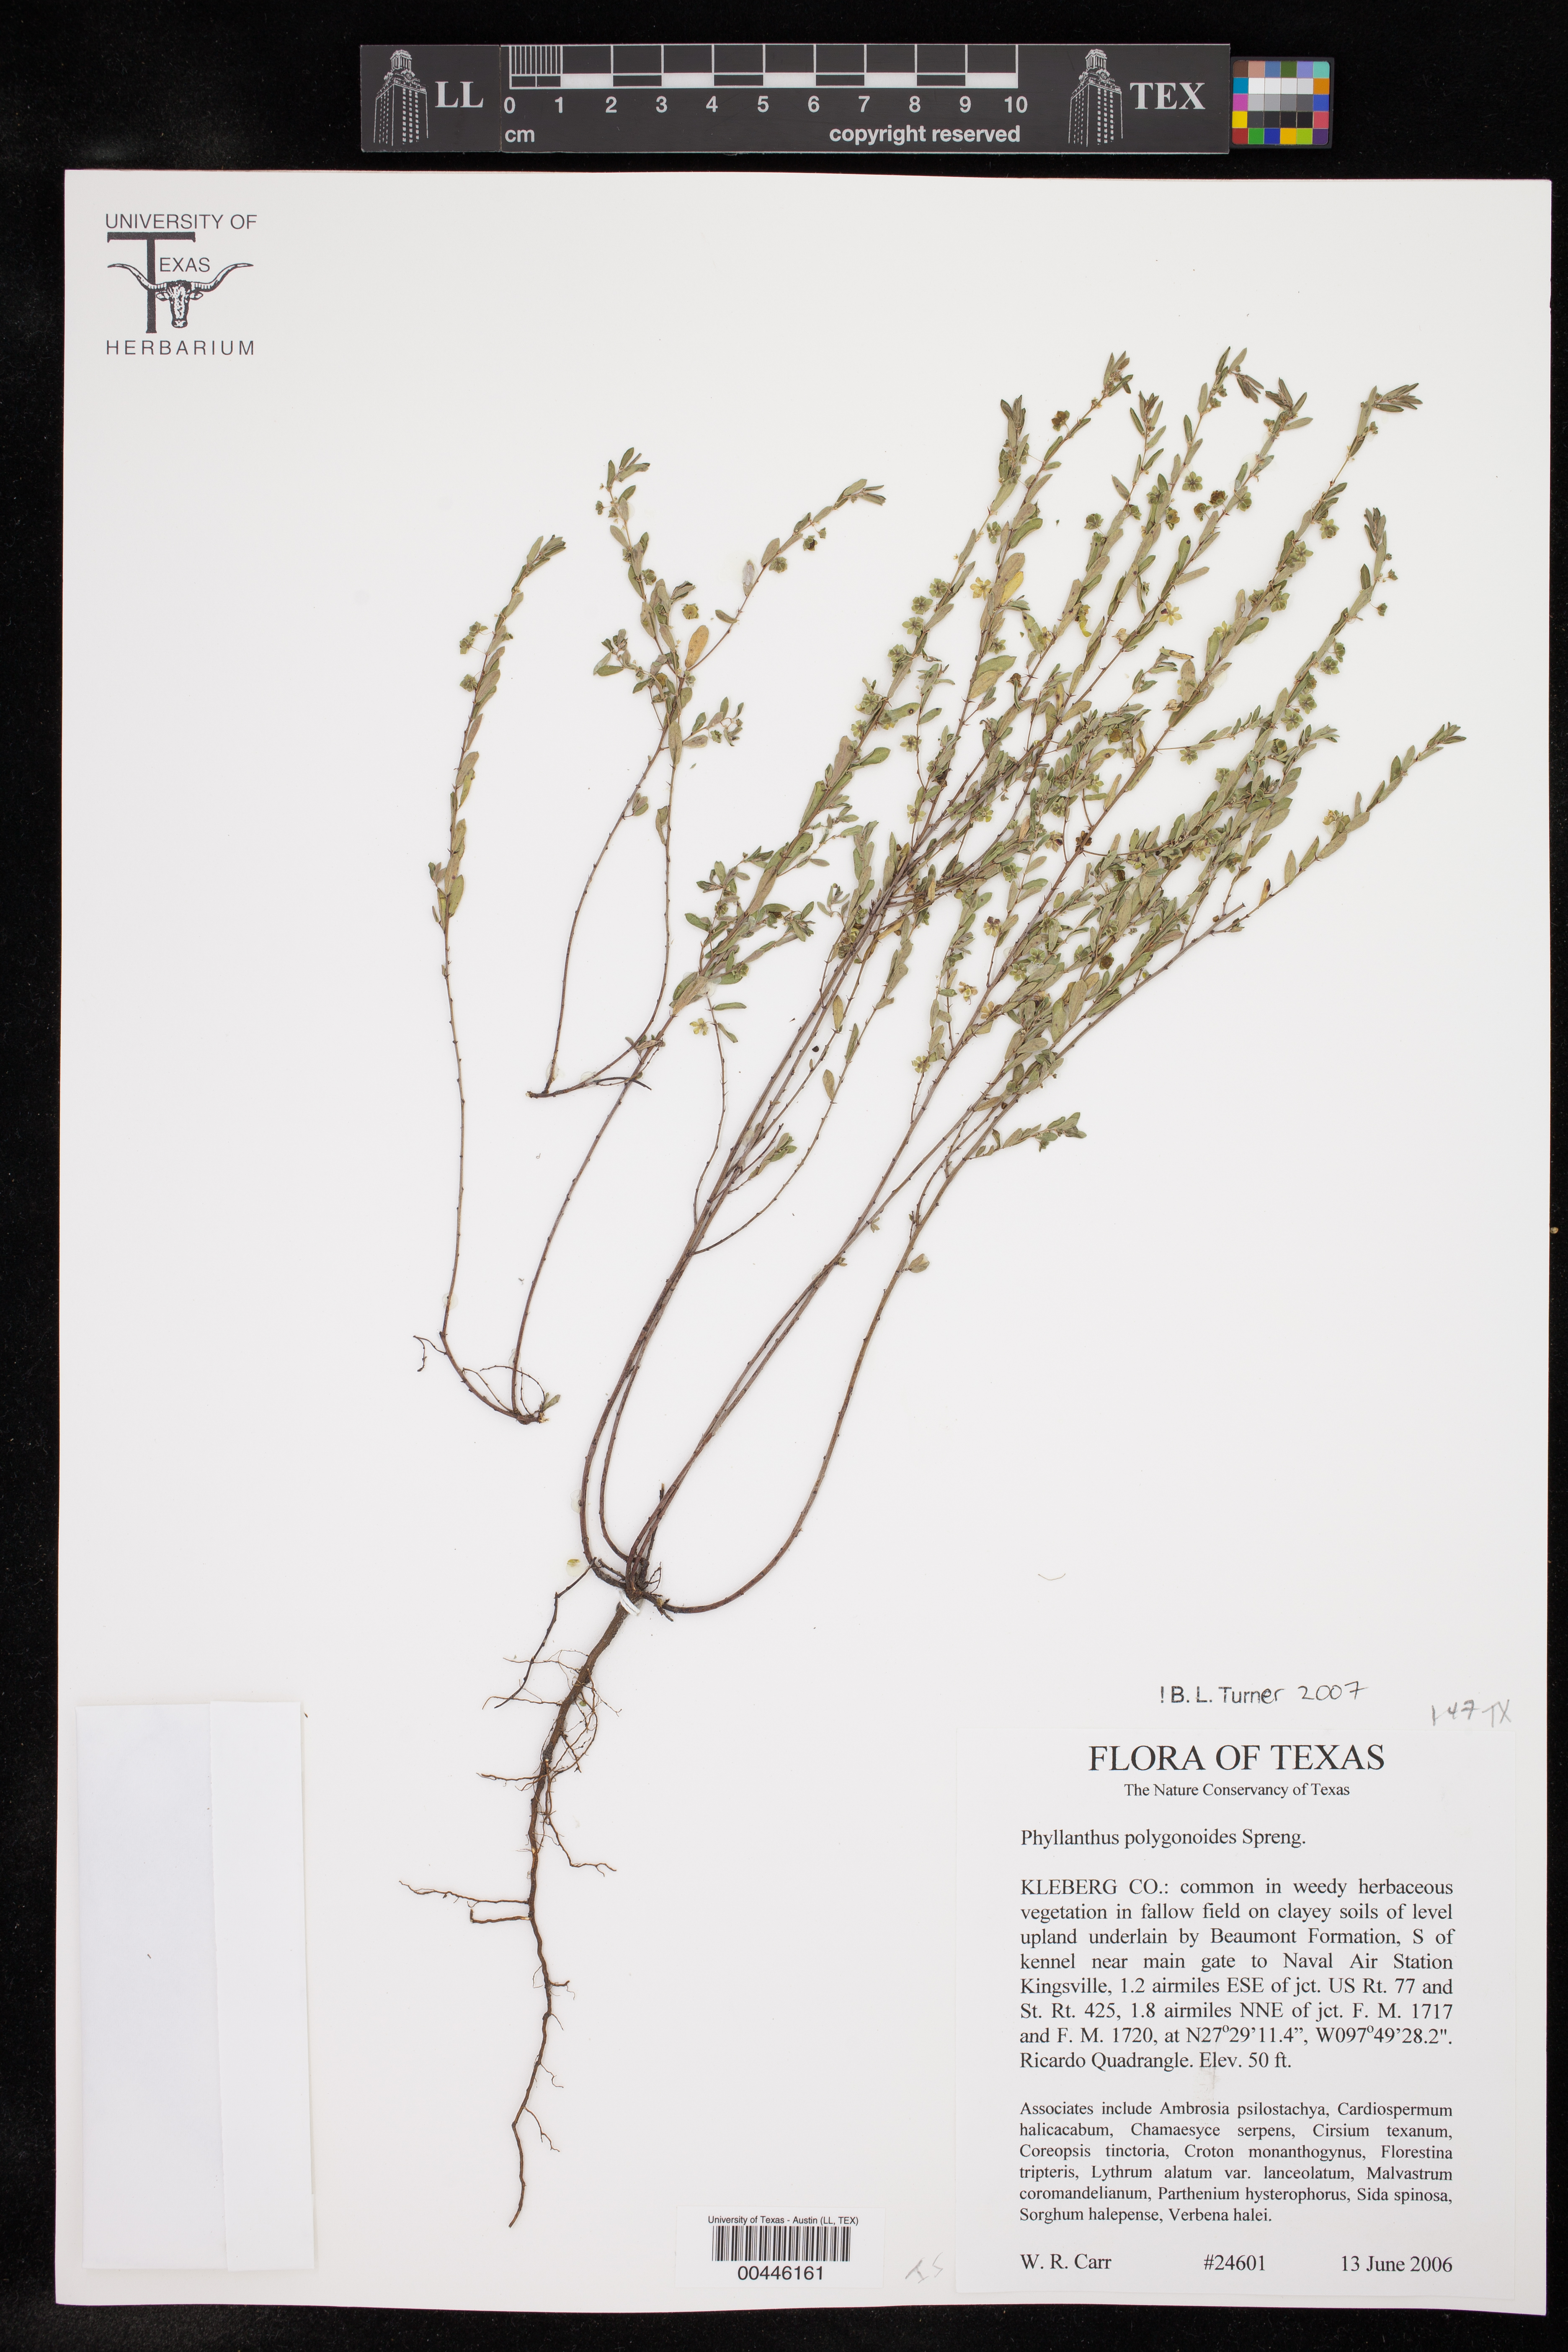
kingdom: Plantae
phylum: Tracheophyta
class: Magnoliopsida
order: Malpighiales
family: Phyllanthaceae
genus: Phyllanthus
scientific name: Phyllanthus polygonoides
